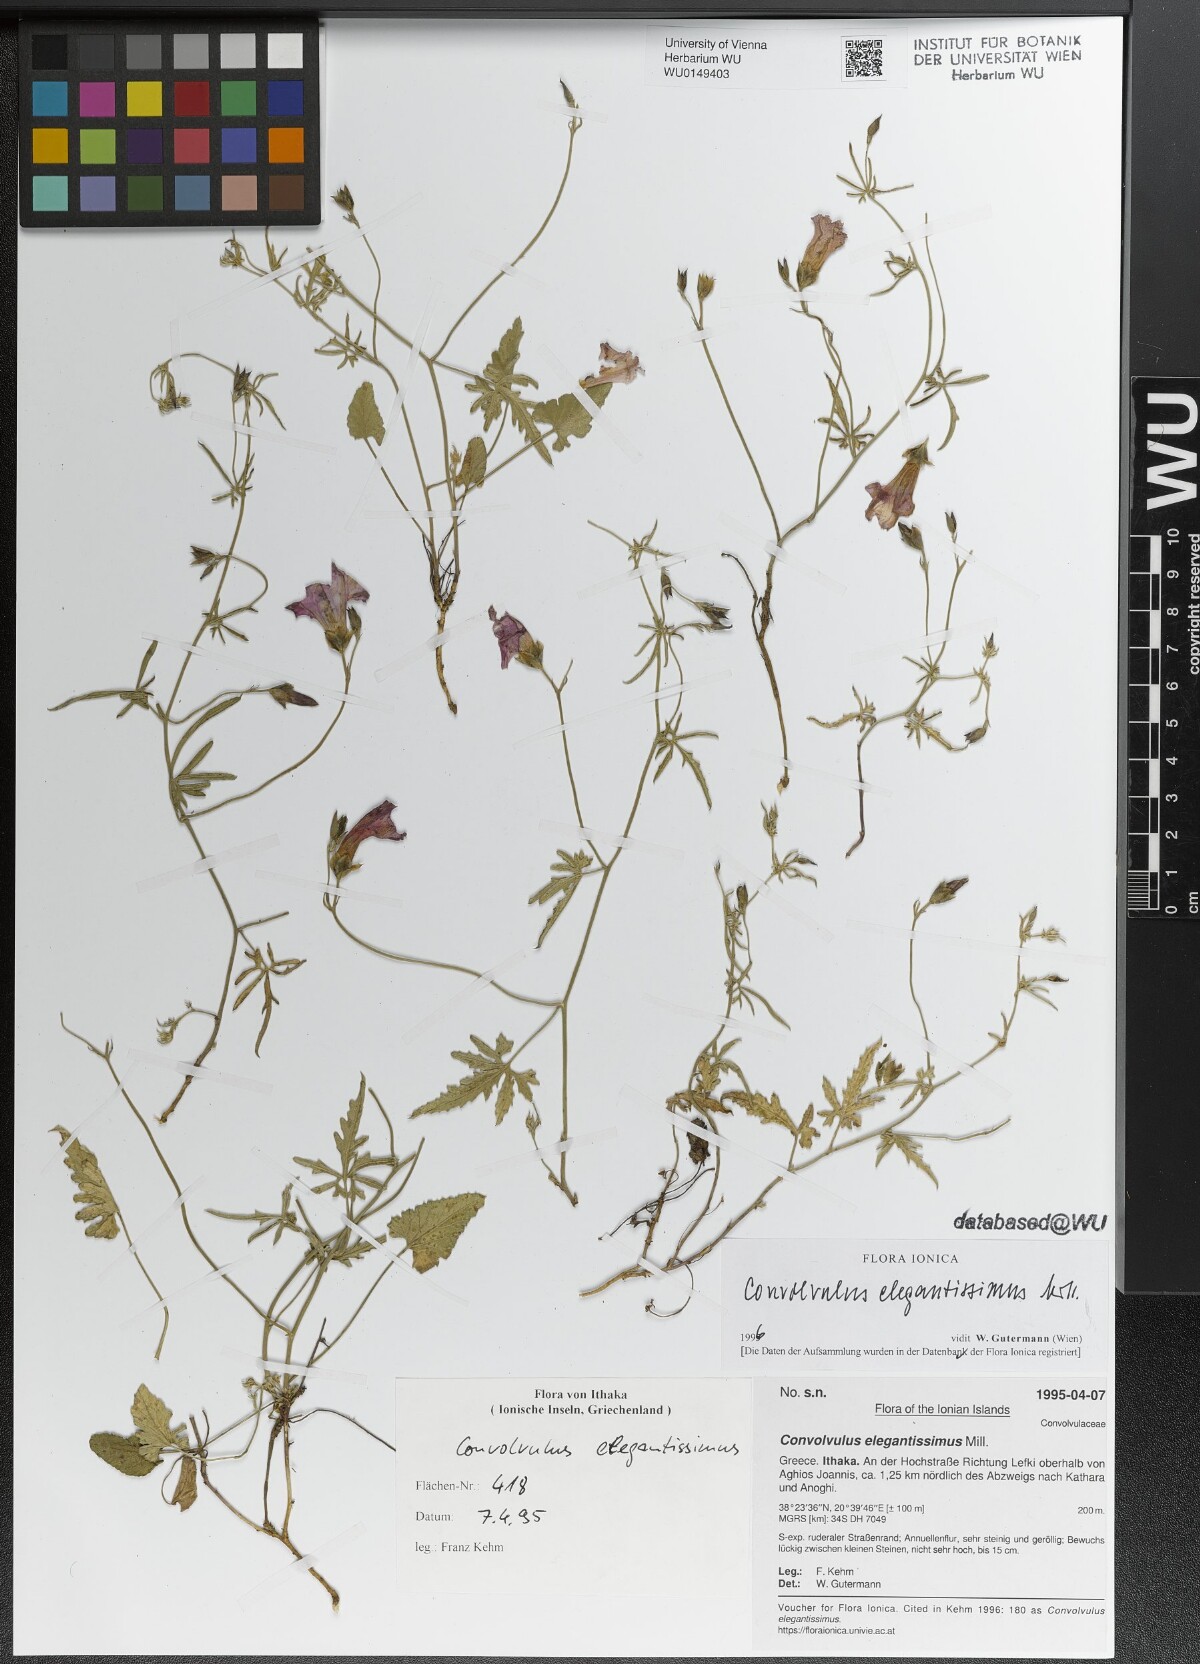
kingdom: Plantae
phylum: Tracheophyta
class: Magnoliopsida
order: Solanales
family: Convolvulaceae
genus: Convolvulus
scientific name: Convolvulus elegantissimus
